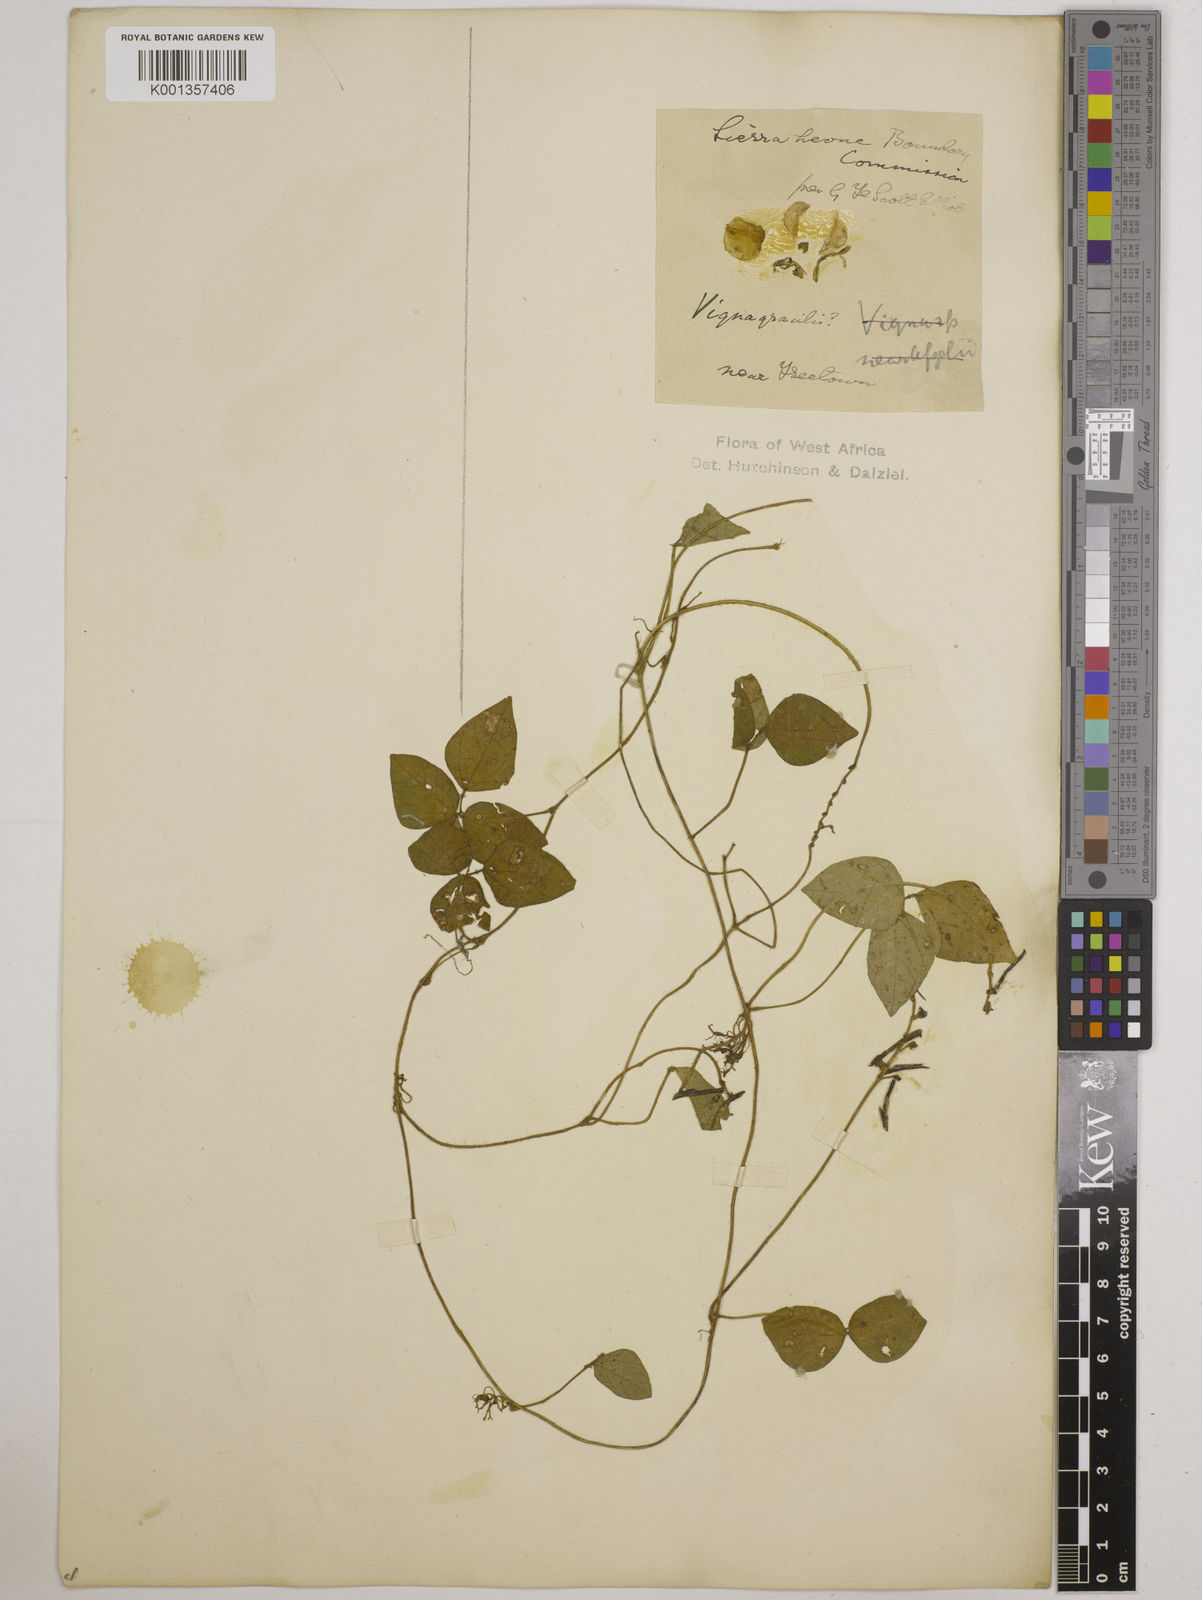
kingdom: Plantae
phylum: Tracheophyta
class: Magnoliopsida
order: Fabales
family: Fabaceae
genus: Vigna
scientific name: Vigna gracilis
